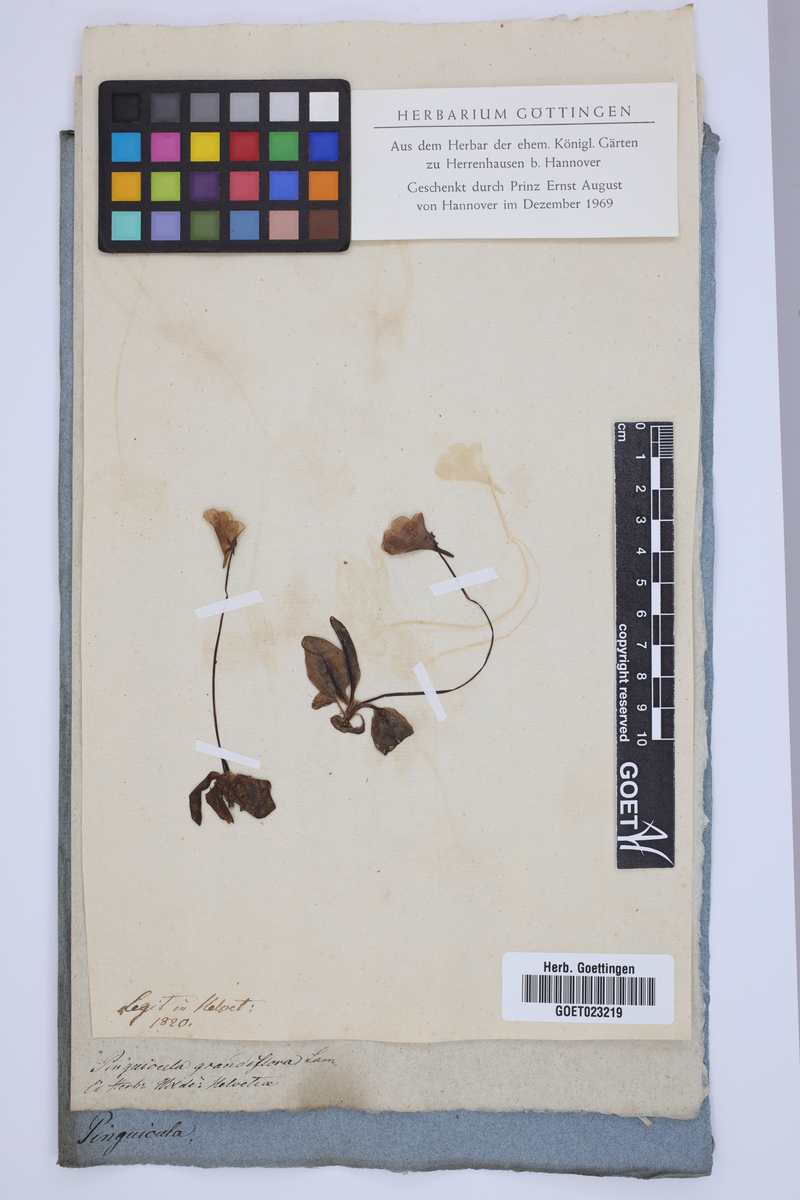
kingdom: Plantae
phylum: Tracheophyta
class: Magnoliopsida
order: Lamiales
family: Lentibulariaceae
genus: Pinguicula
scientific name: Pinguicula grandiflora
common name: Large-flowered butterwort
